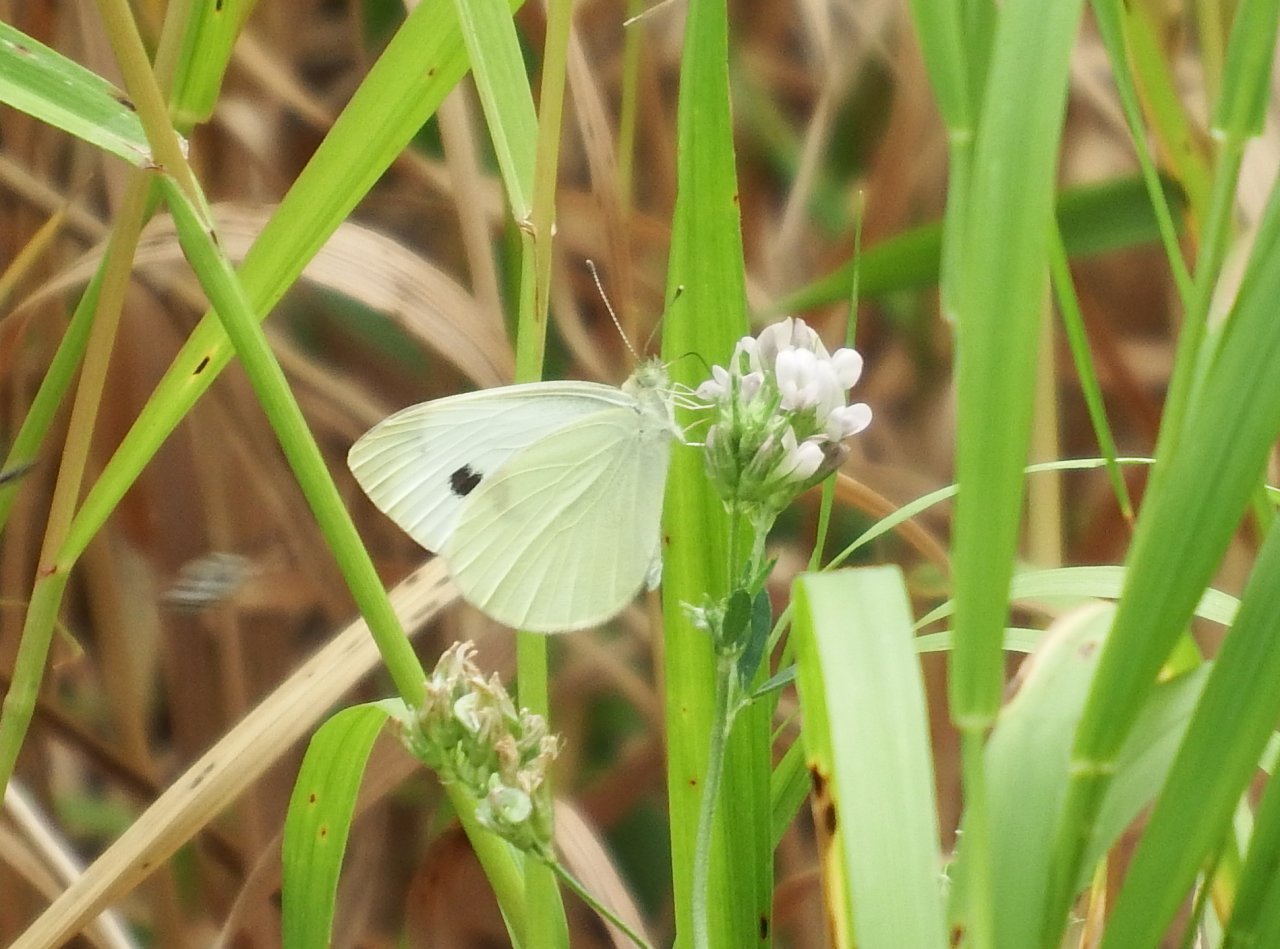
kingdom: Animalia
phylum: Arthropoda
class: Insecta
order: Lepidoptera
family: Pieridae
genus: Pieris
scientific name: Pieris rapae
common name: Cabbage White
